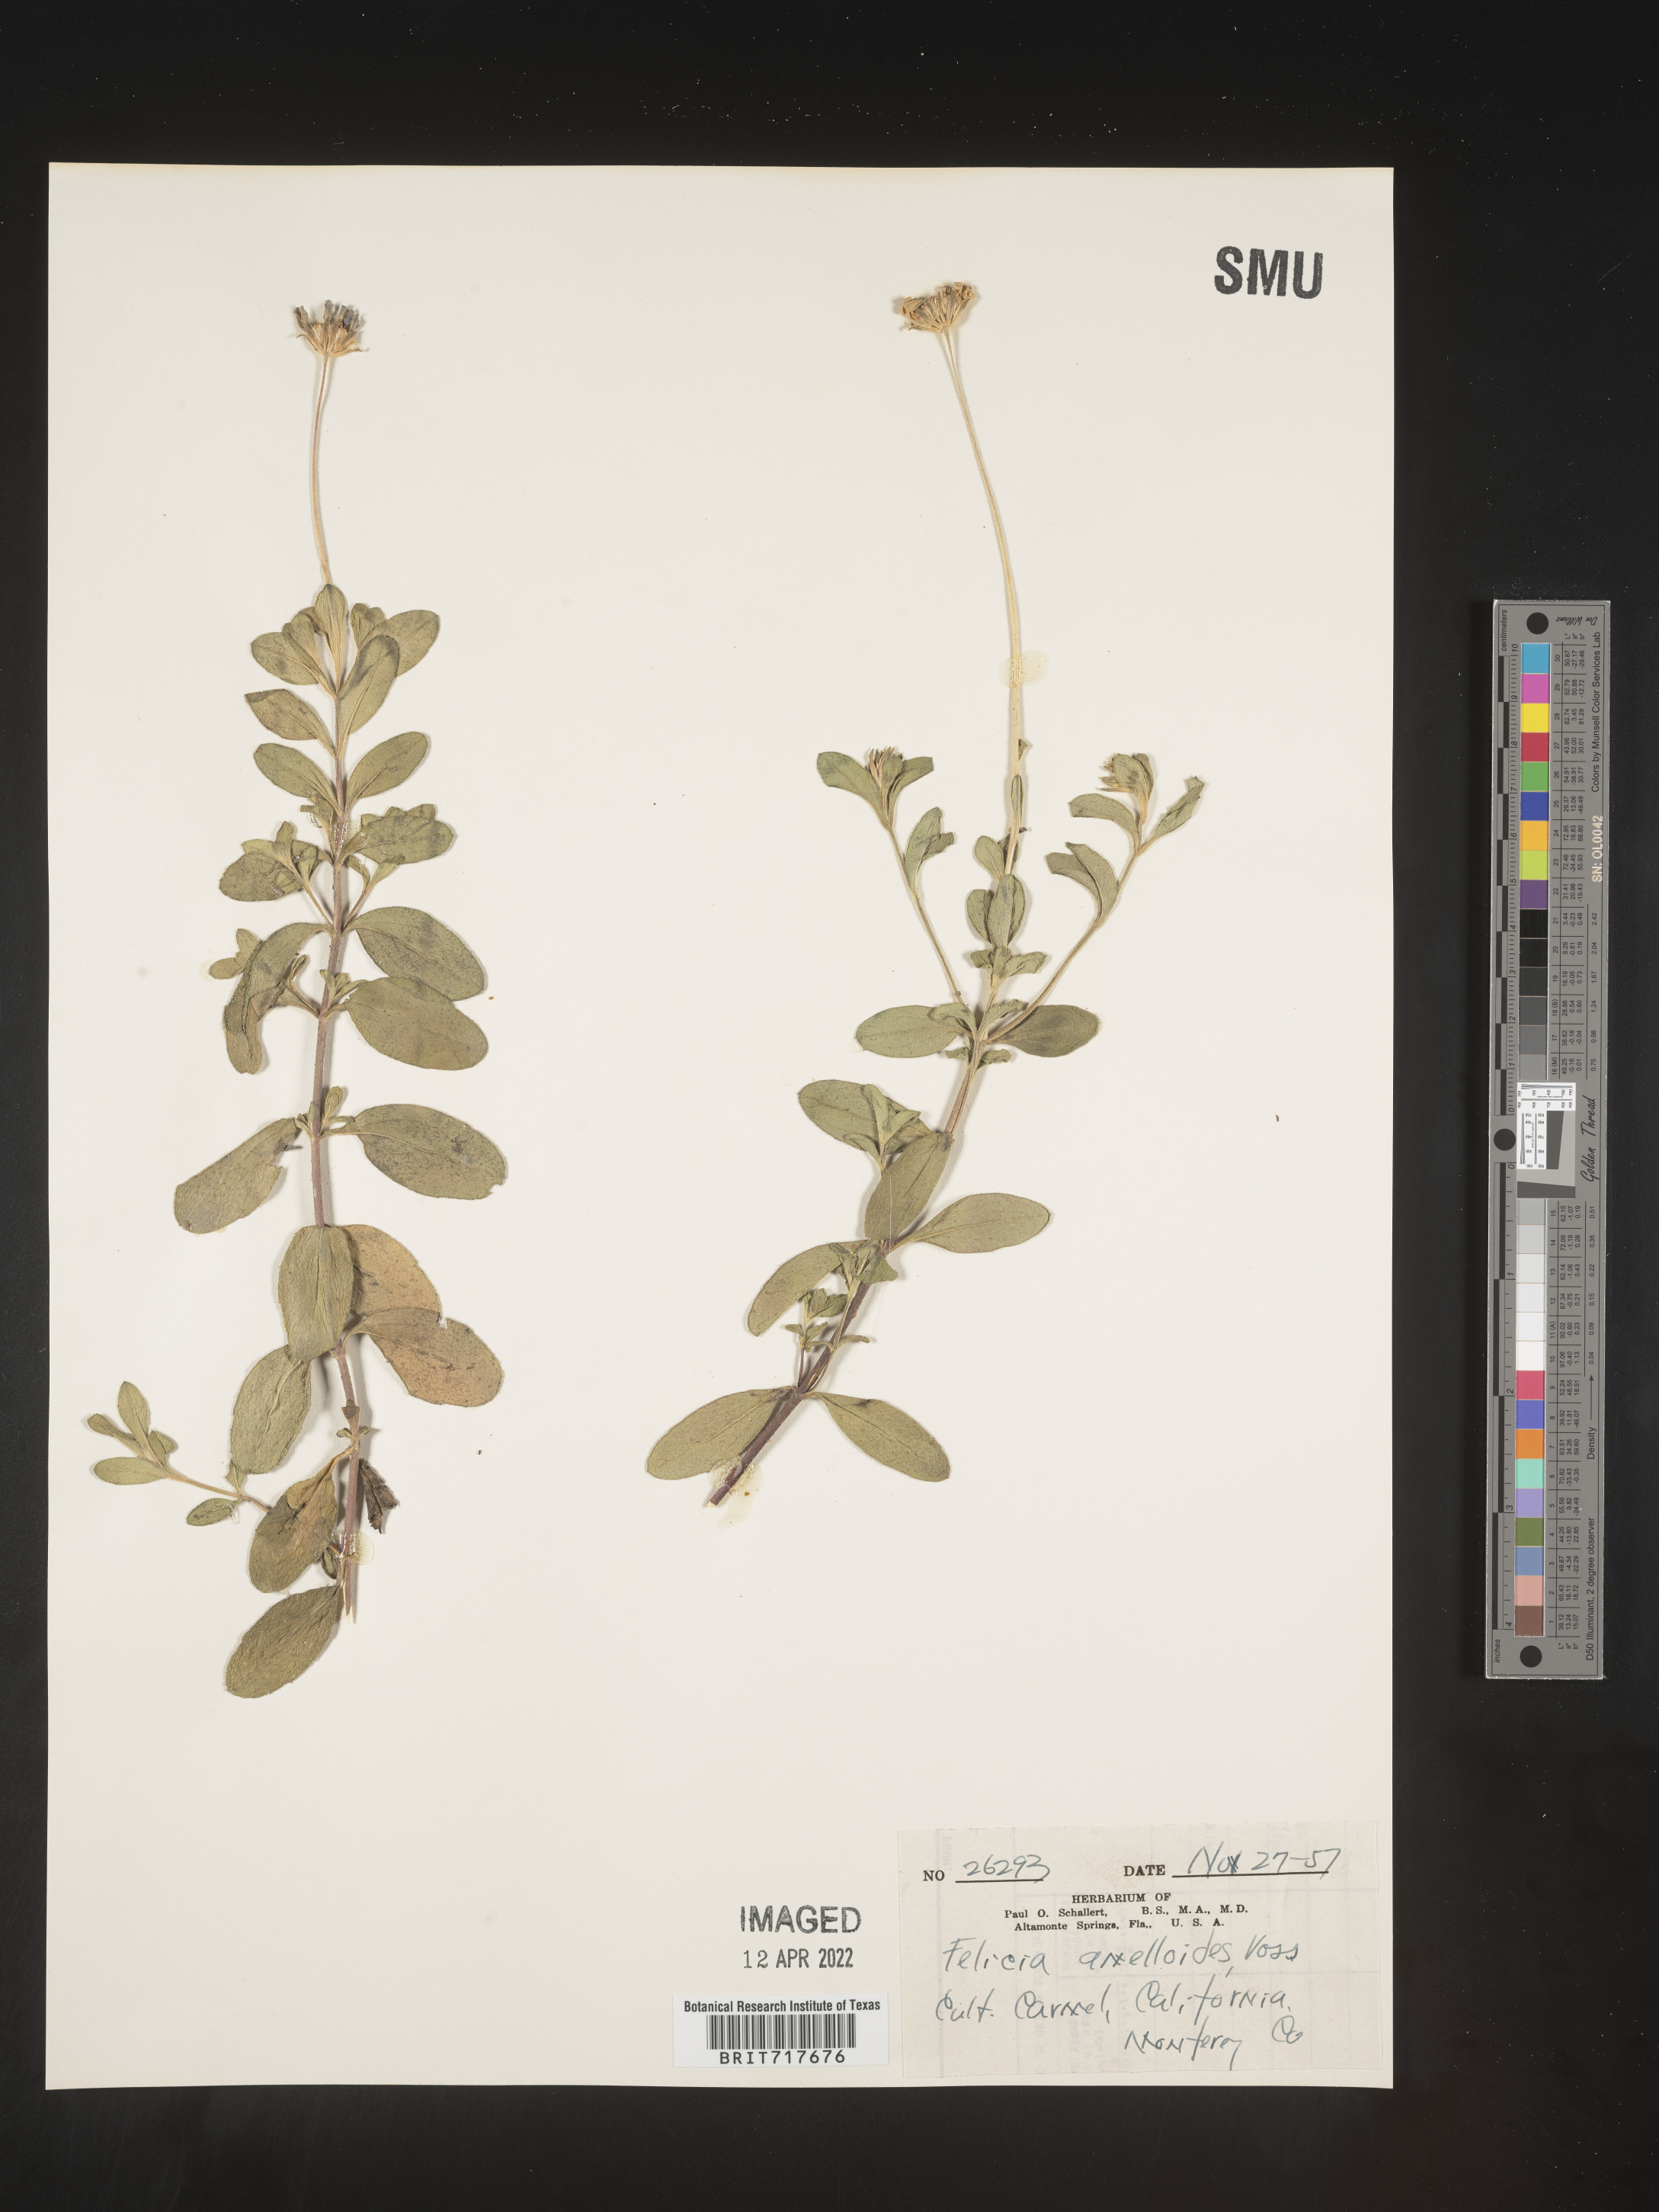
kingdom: Plantae
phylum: Tracheophyta
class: Magnoliopsida
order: Asterales
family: Asteraceae
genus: Felicia
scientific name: Felicia
